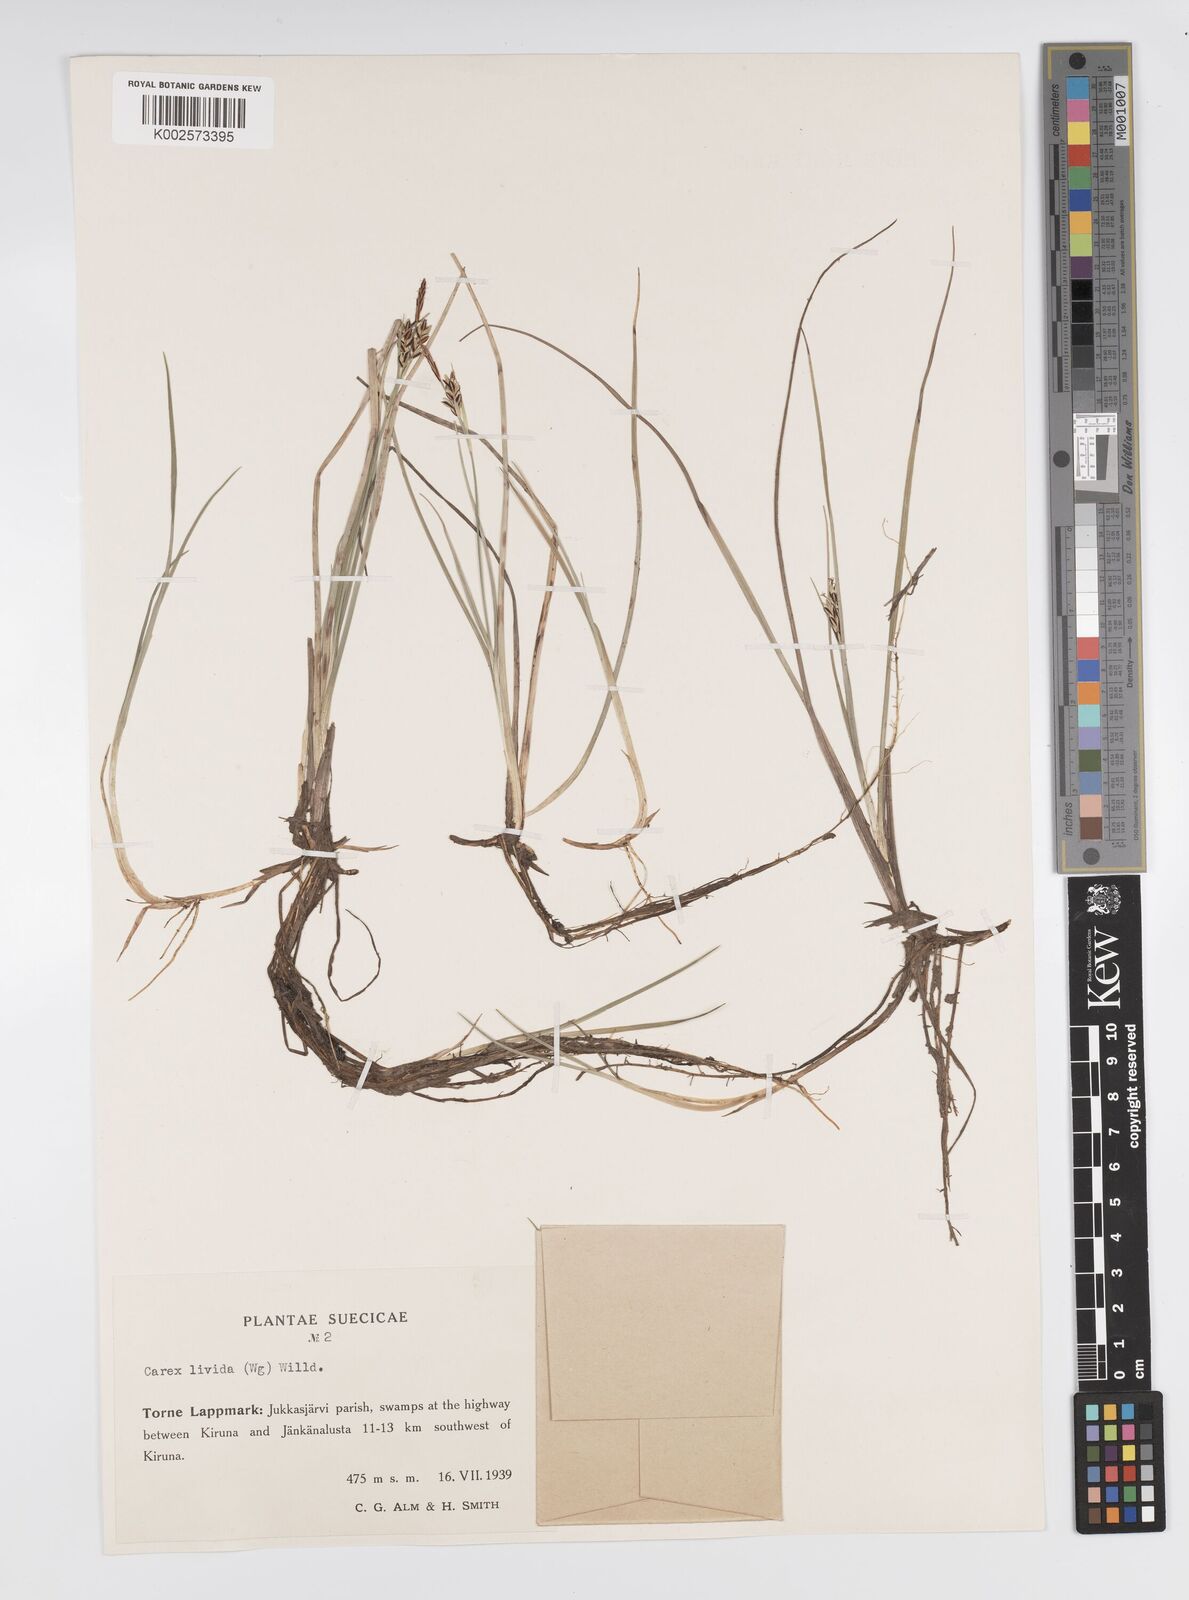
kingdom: Plantae
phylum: Tracheophyta
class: Liliopsida
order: Poales
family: Cyperaceae
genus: Carex
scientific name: Carex livida
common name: Livid sedge
